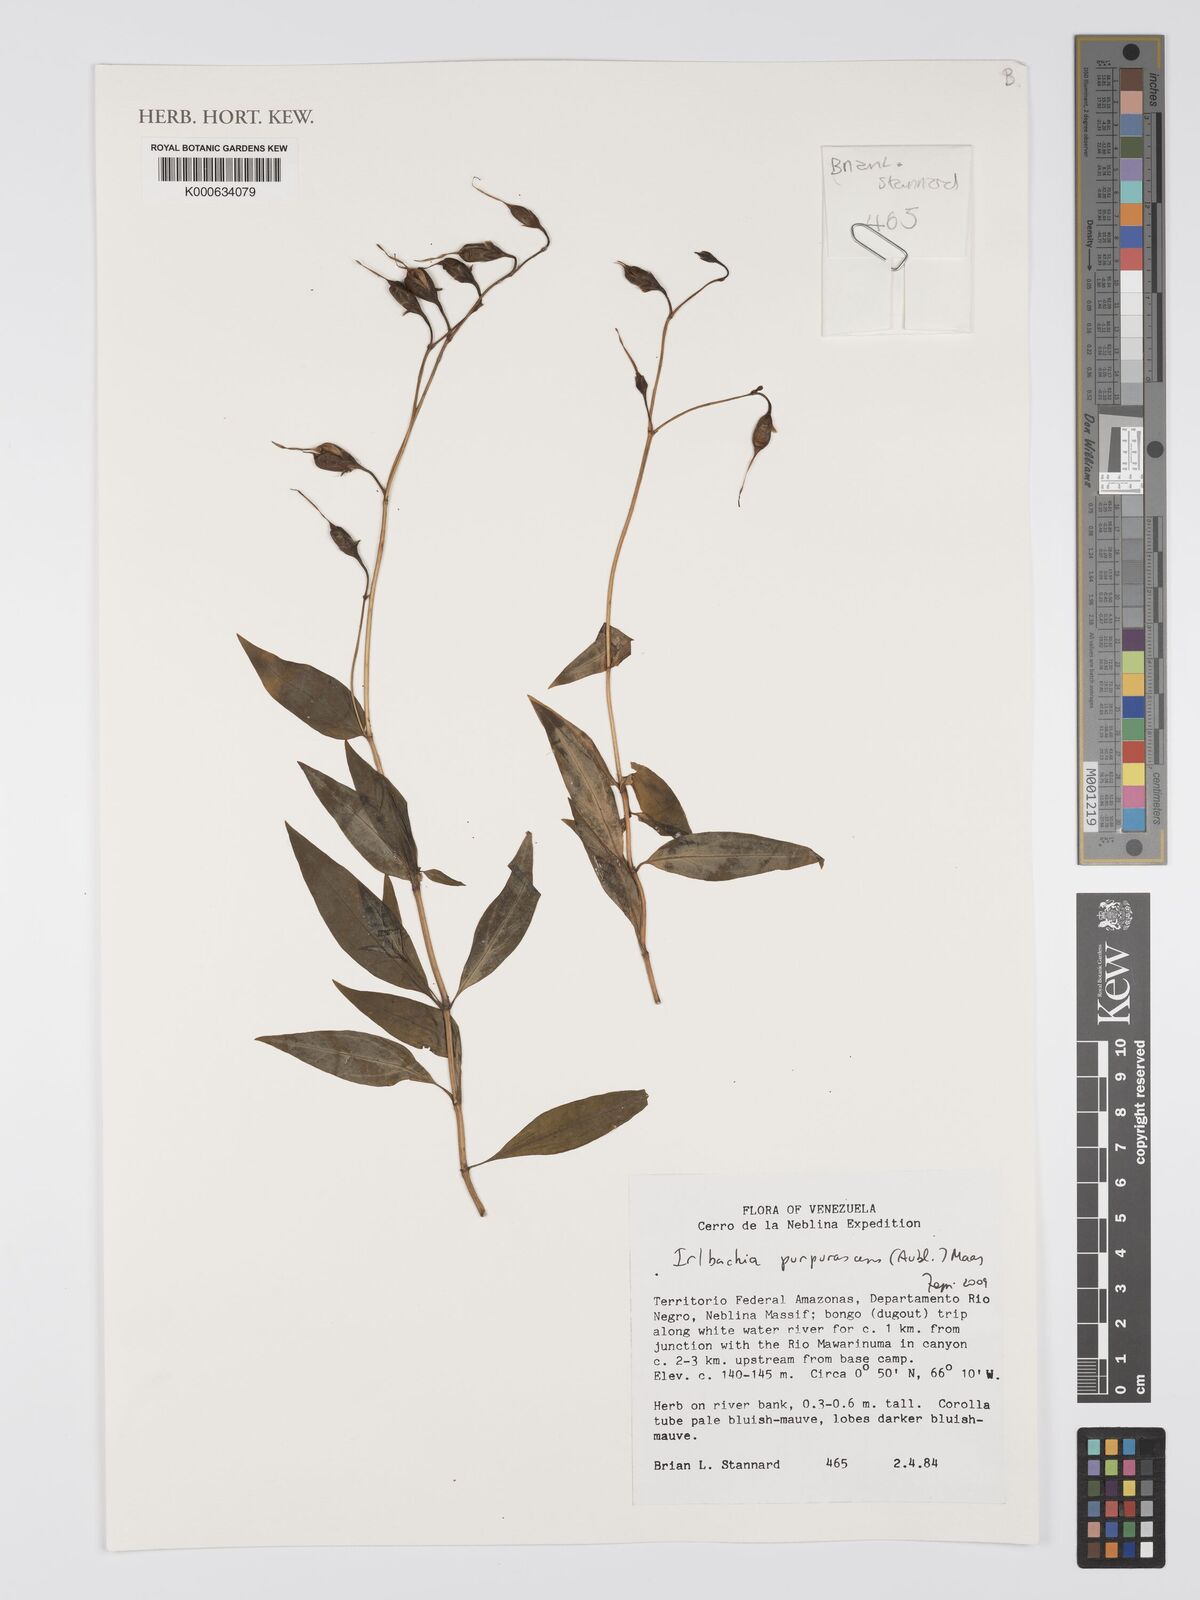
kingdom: Plantae
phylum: Tracheophyta
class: Magnoliopsida
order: Gentianales
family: Gentianaceae
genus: Irlbachia
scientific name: Irlbachia
